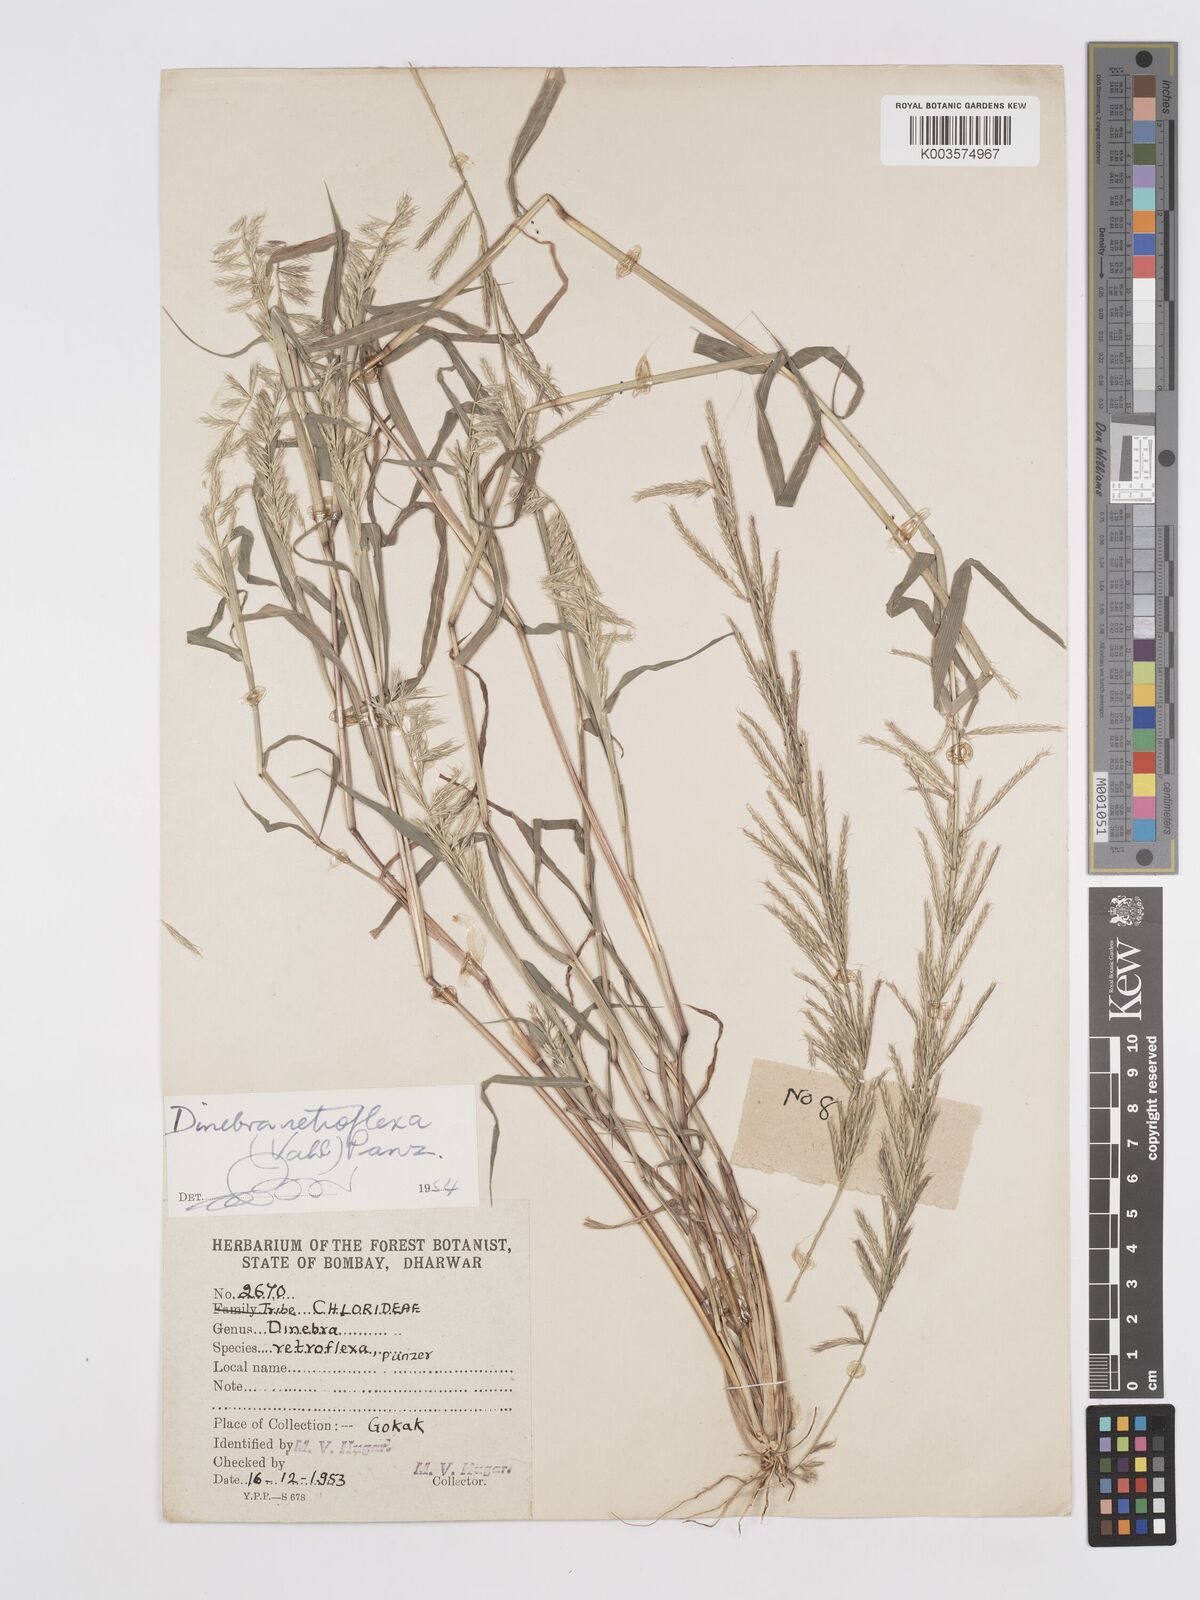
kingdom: Plantae
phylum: Tracheophyta
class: Liliopsida
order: Poales
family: Poaceae
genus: Dinebra
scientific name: Dinebra retroflexa
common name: Viper grass
